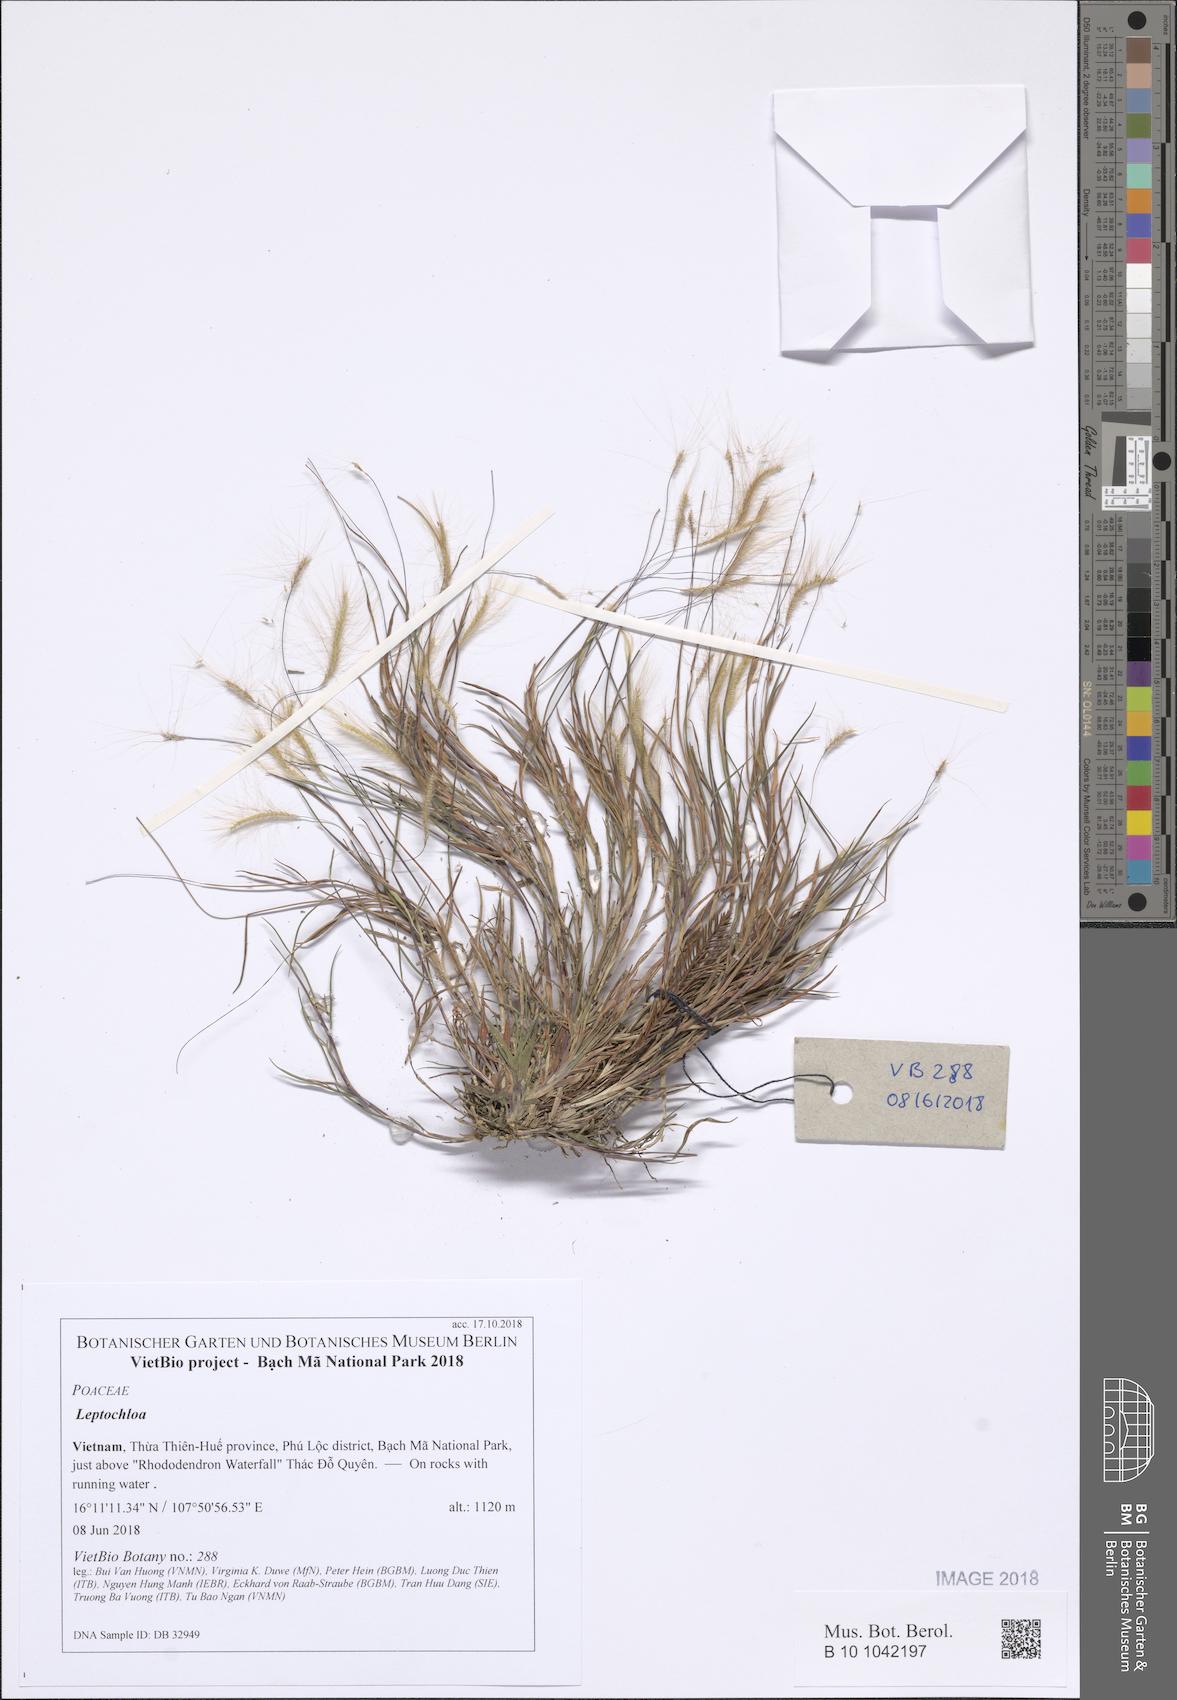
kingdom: Plantae
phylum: Tracheophyta
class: Liliopsida
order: Poales
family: Poaceae
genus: Leptochloa
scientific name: Leptochloa
